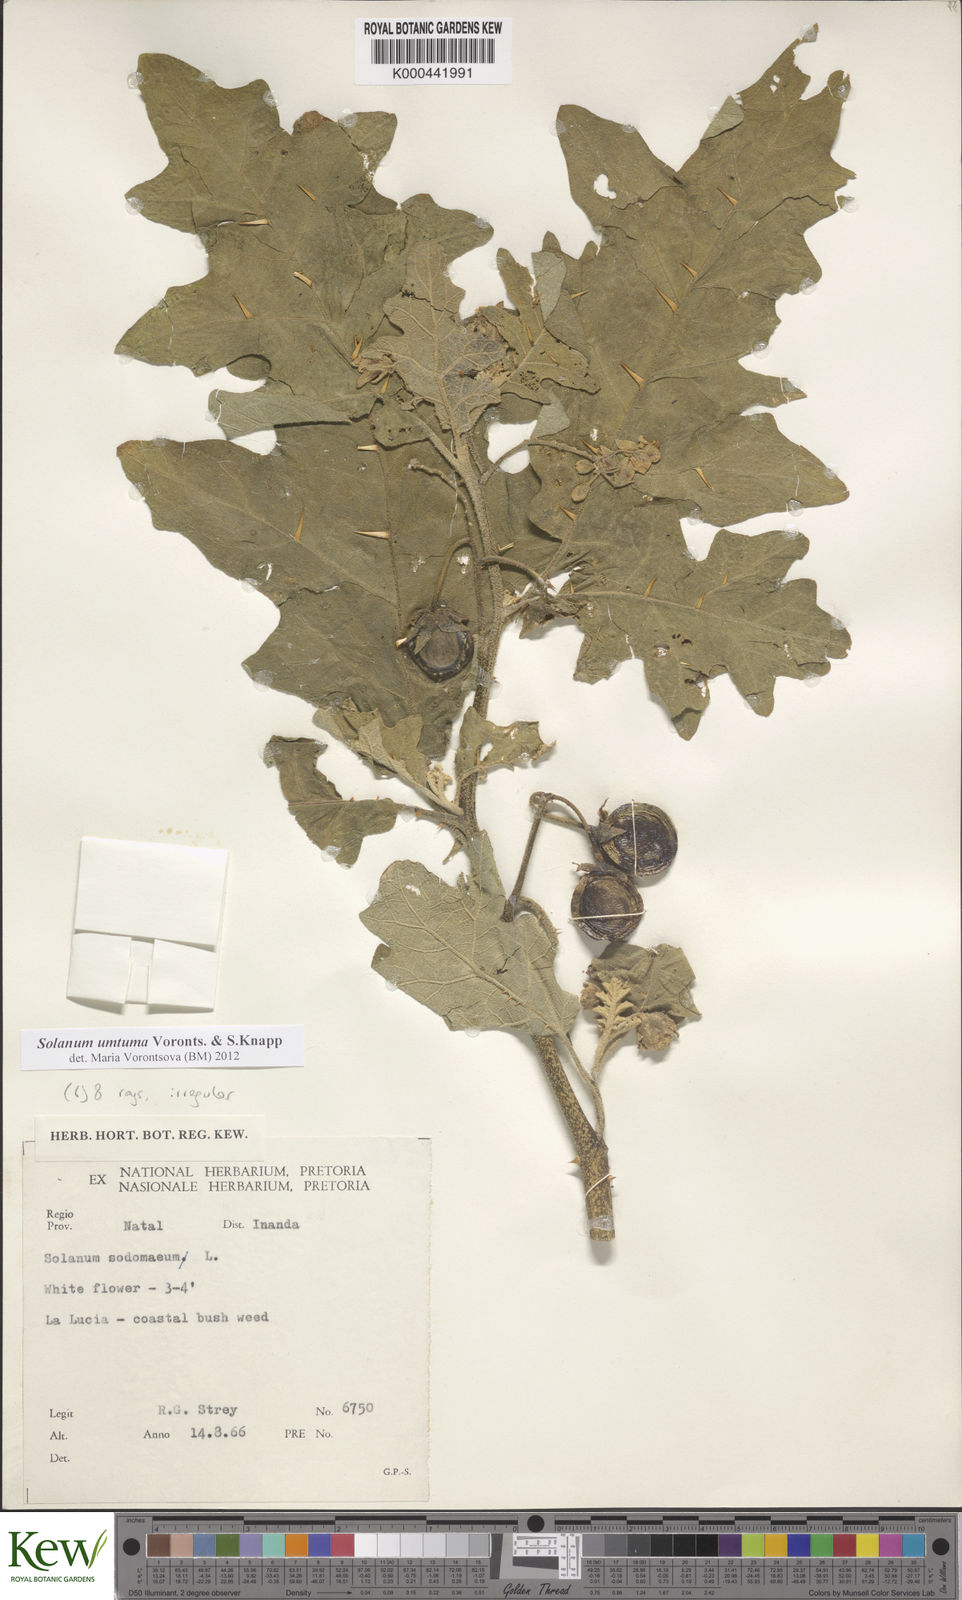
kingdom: Plantae
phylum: Tracheophyta
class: Magnoliopsida
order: Solanales
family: Solanaceae
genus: Solanum
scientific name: Solanum umtuma
